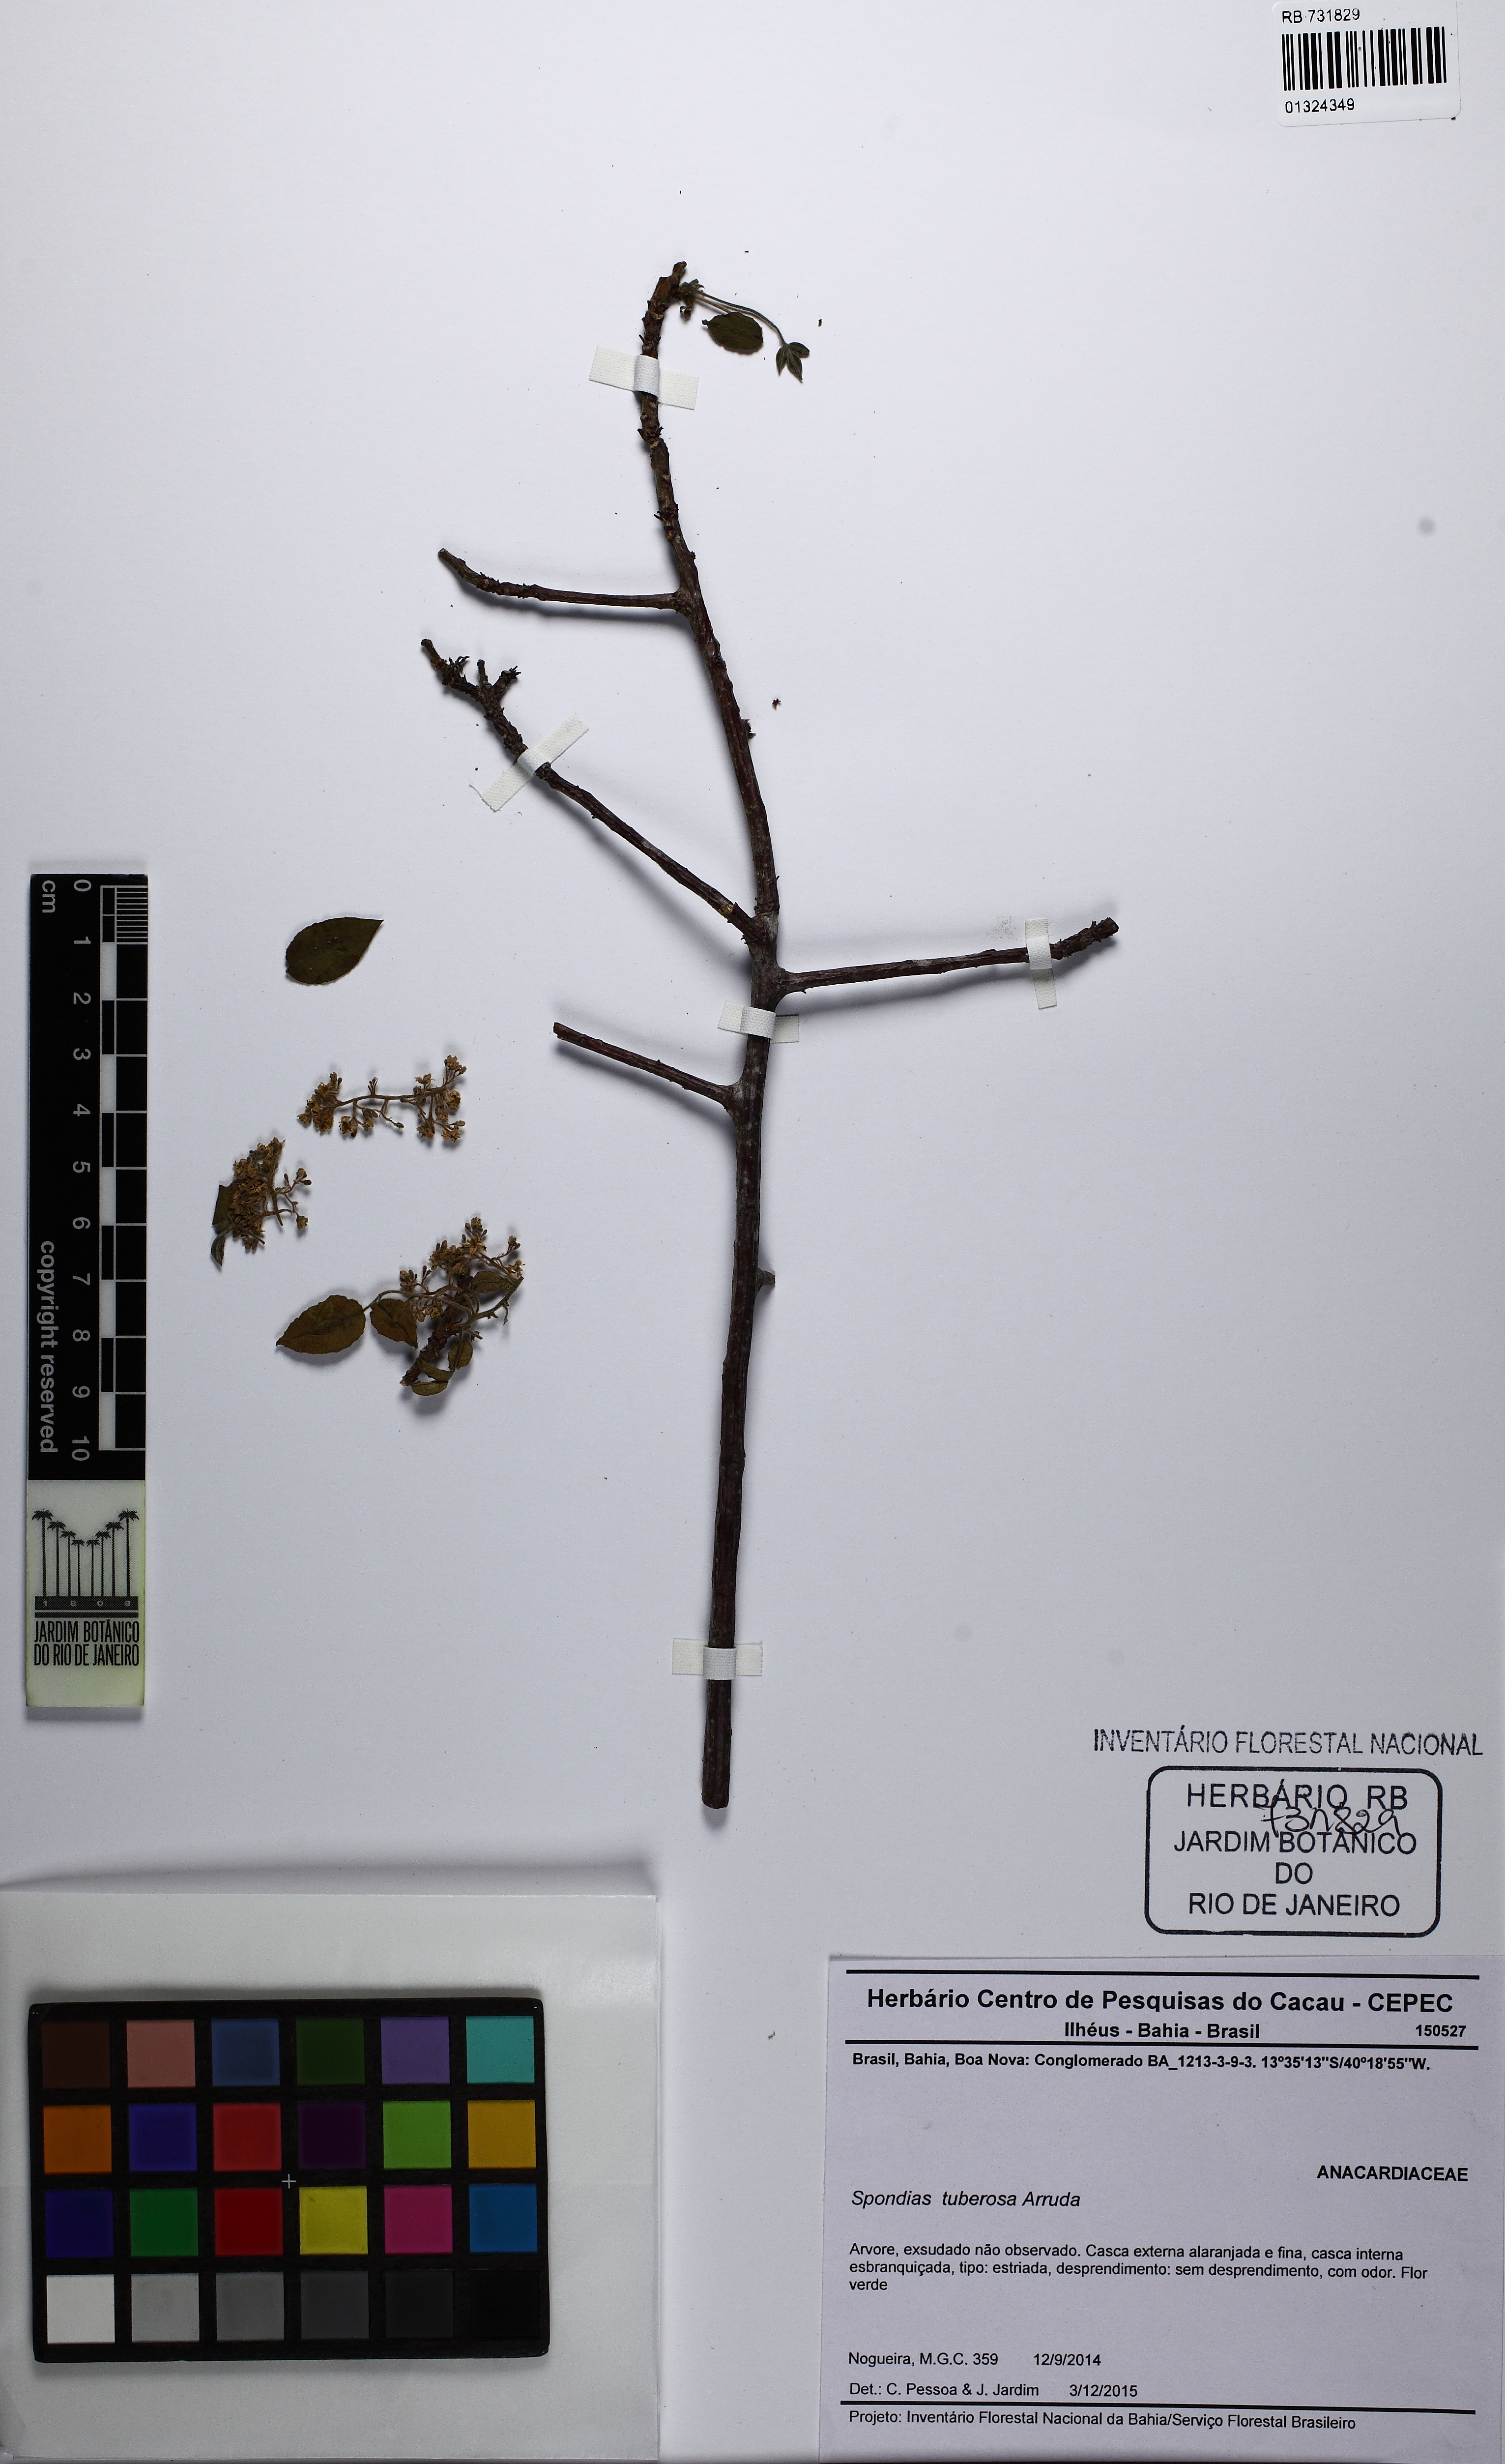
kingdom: Plantae
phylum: Tracheophyta
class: Magnoliopsida
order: Sapindales
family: Anacardiaceae
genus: Spondias
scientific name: Spondias tuberosa
